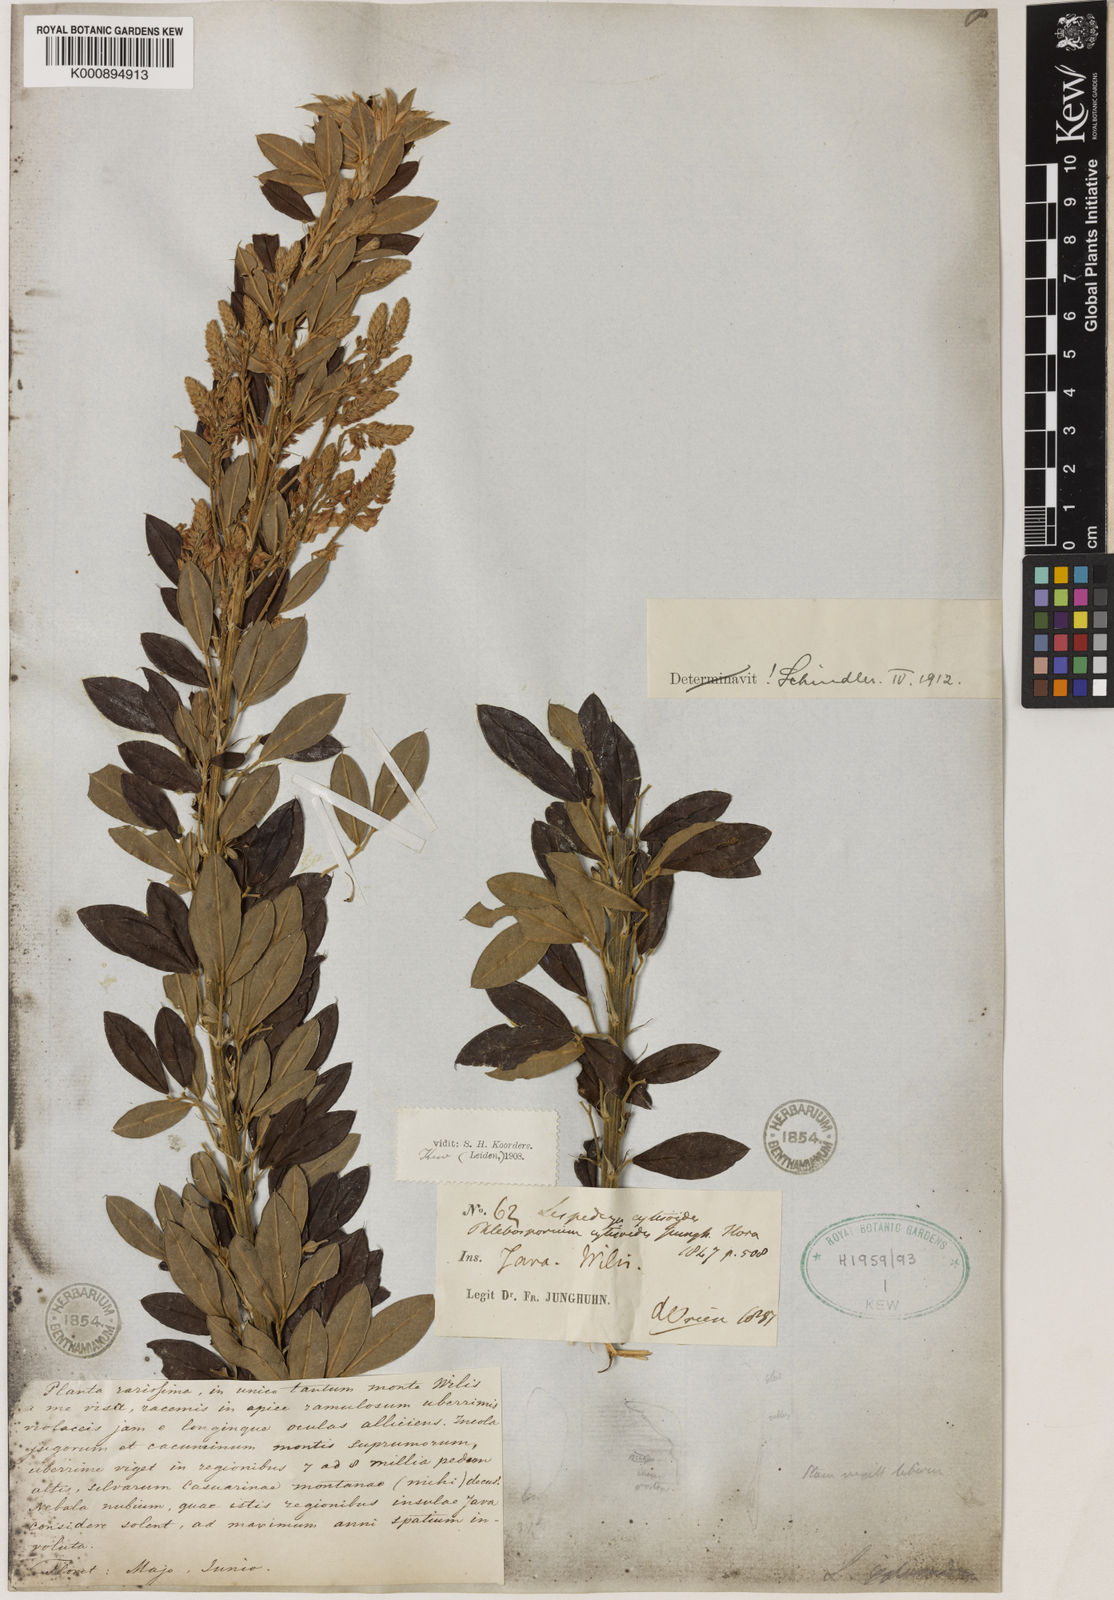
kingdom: Plantae
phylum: Tracheophyta
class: Magnoliopsida
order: Fabales
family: Fabaceae
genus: Campylotropis
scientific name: Campylotropis
